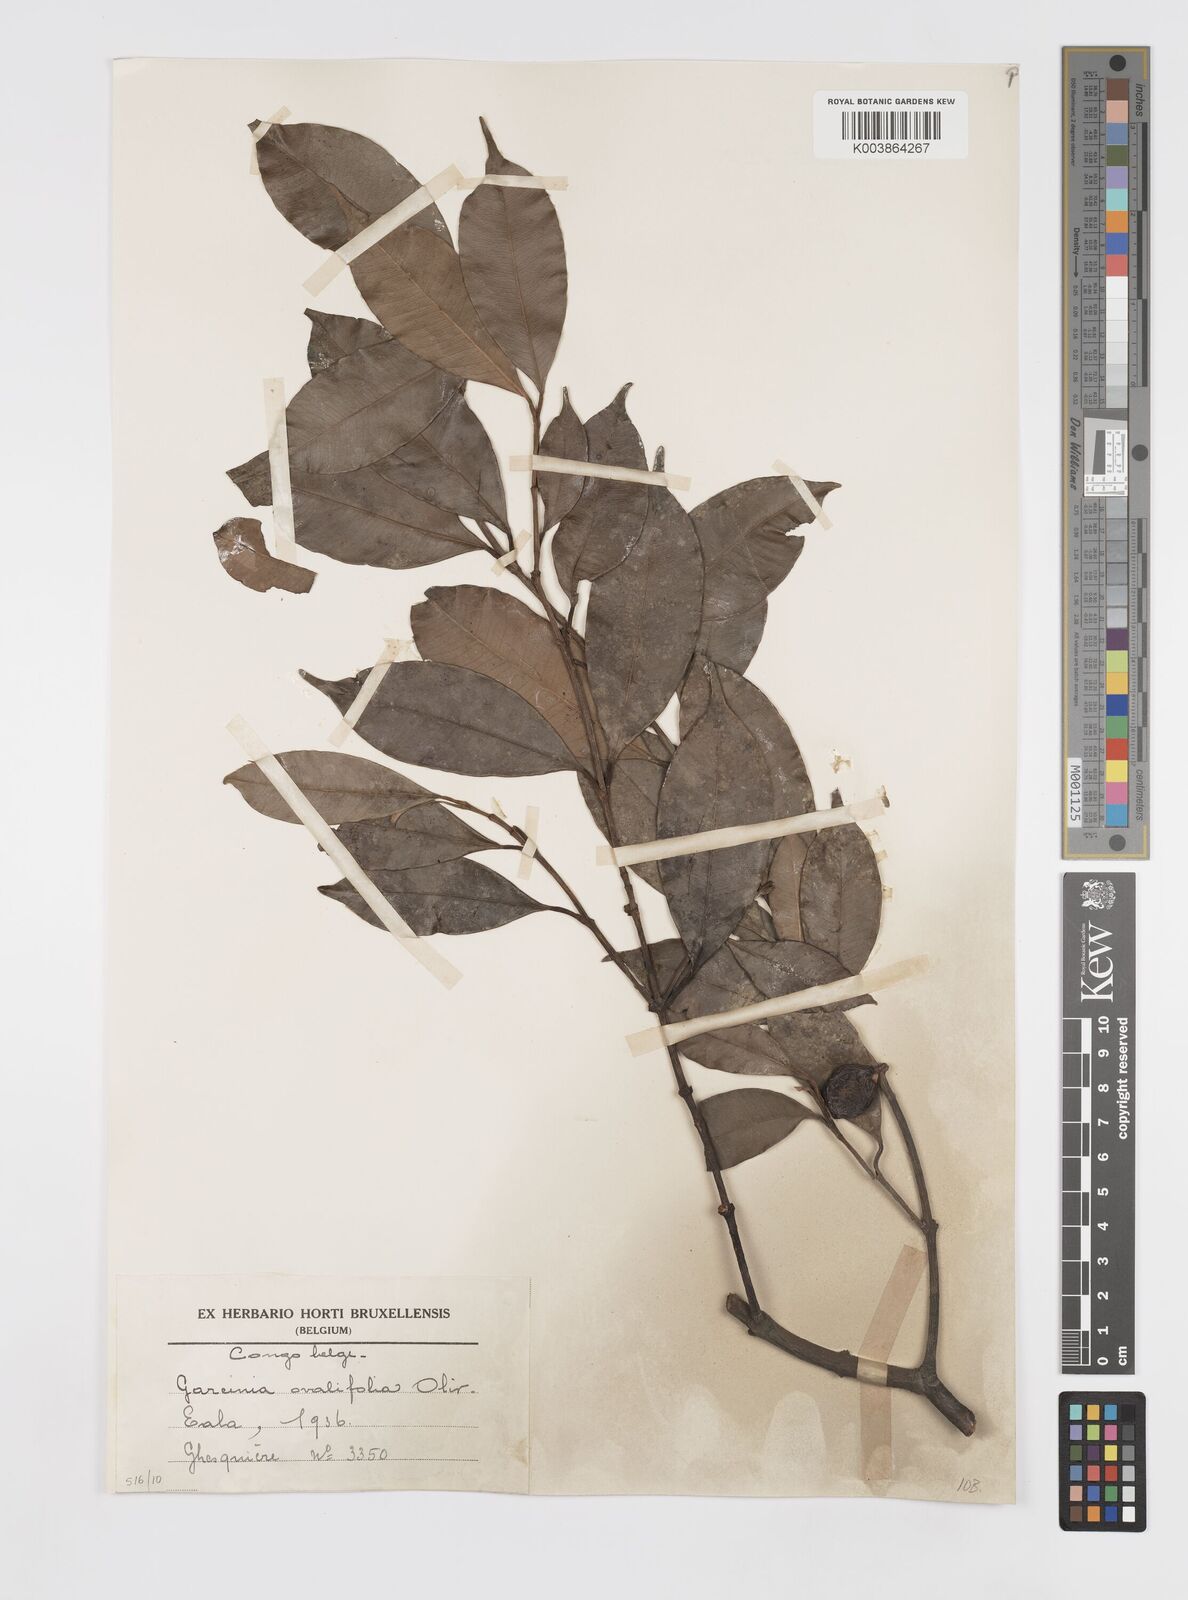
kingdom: Plantae
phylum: Tracheophyta
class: Magnoliopsida
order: Malpighiales
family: Clusiaceae
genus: Garcinia
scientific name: Garcinia ovalifolia
